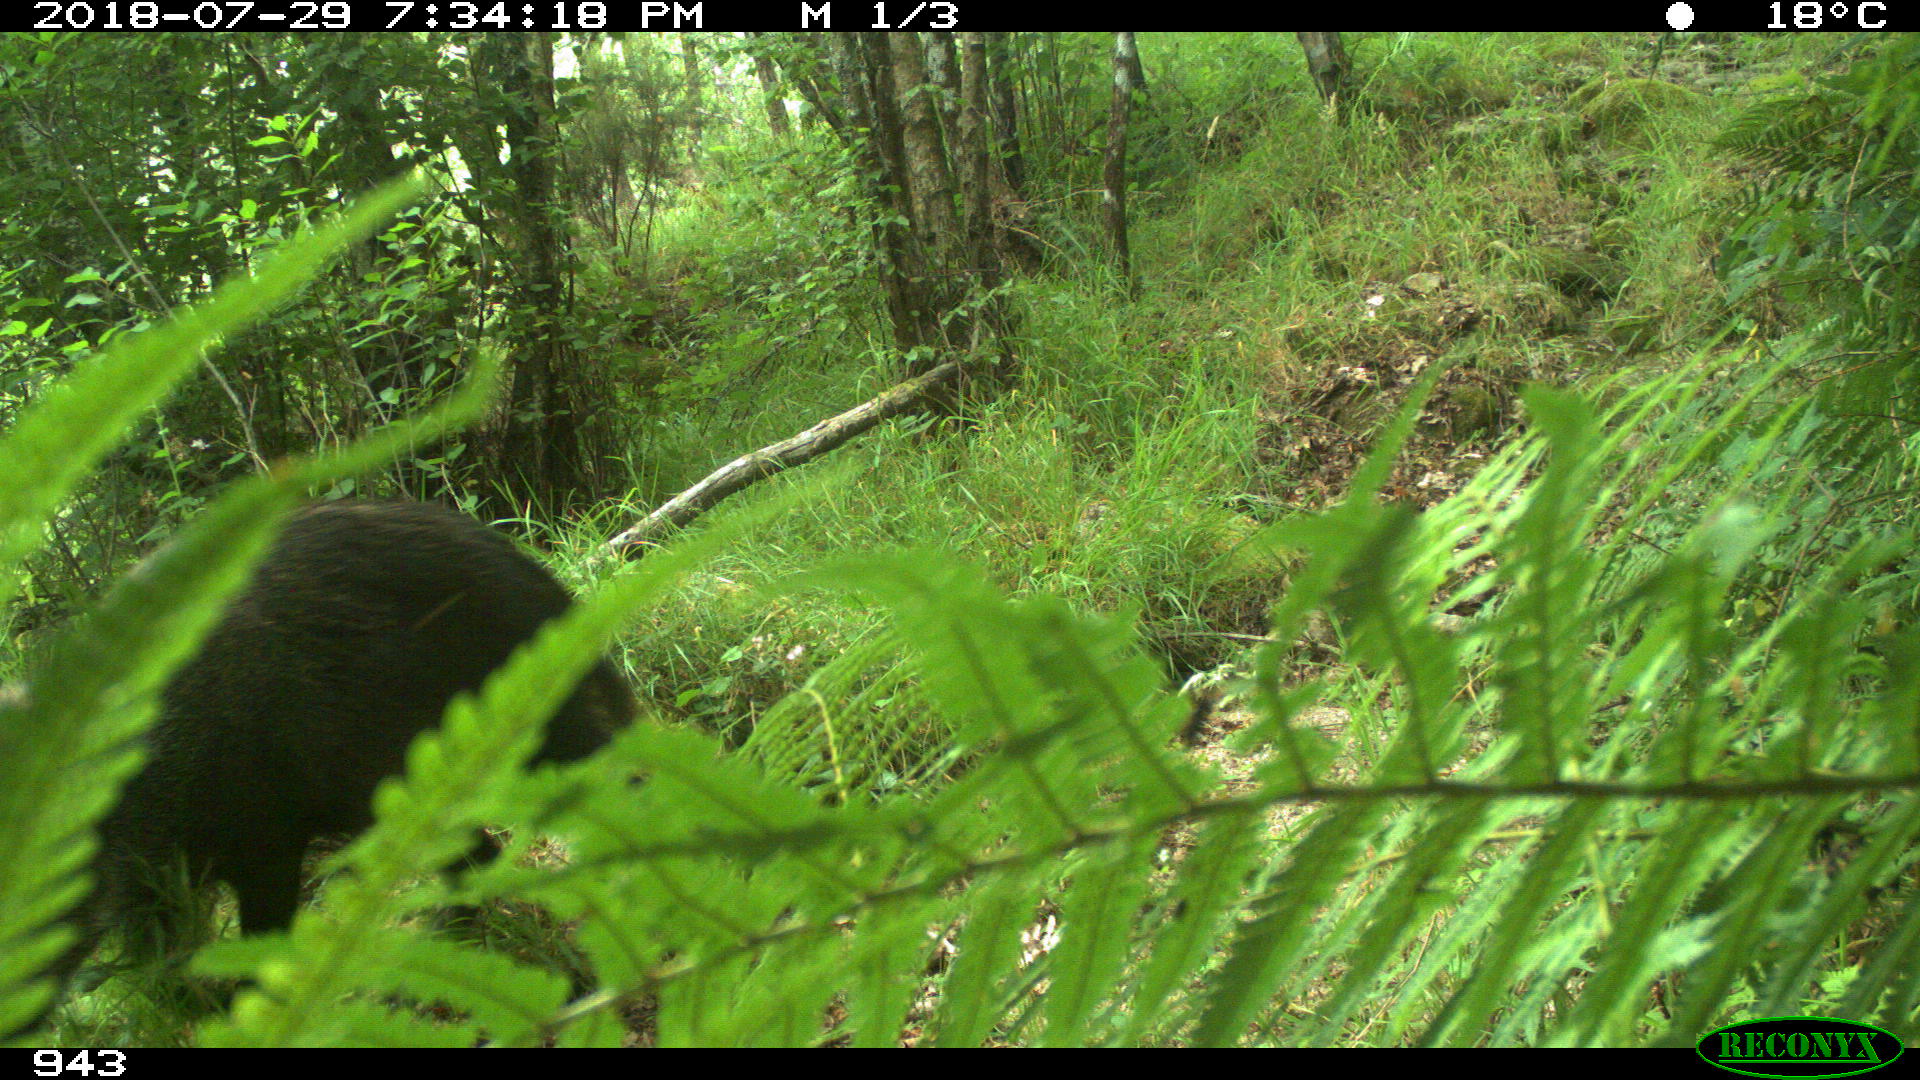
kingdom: Animalia
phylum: Chordata
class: Mammalia
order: Artiodactyla
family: Suidae
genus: Sus
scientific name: Sus scrofa
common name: Wild boar
